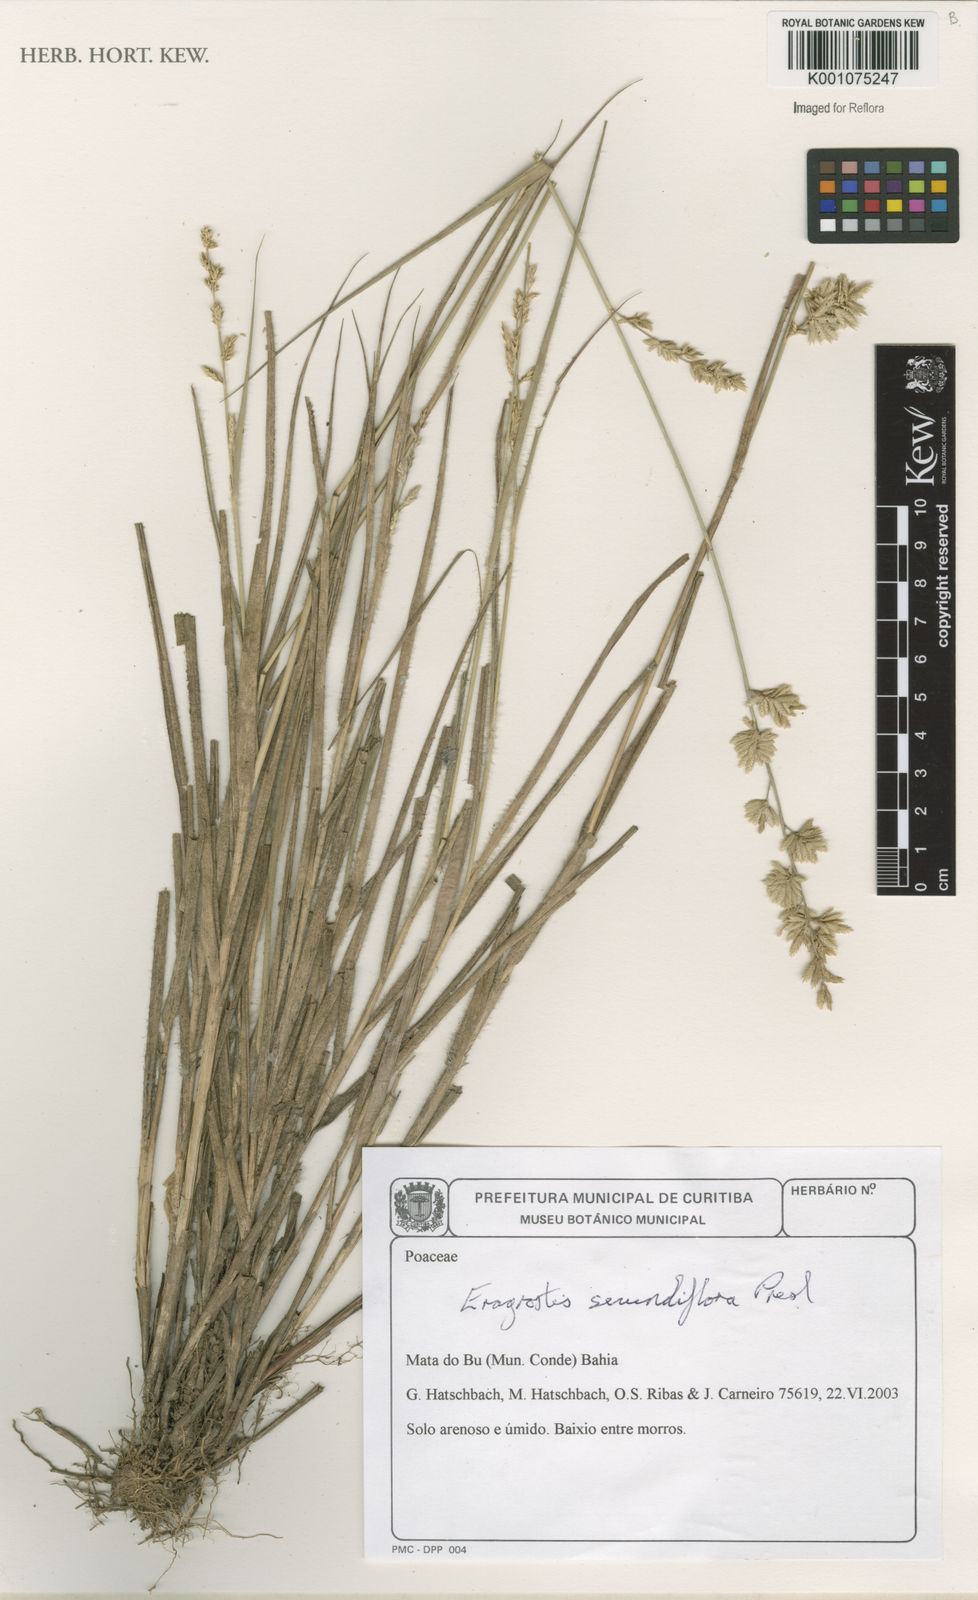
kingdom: Plantae
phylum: Tracheophyta
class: Liliopsida
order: Poales
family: Poaceae
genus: Eragrostis
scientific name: Eragrostis secundiflora
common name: Red love grass
